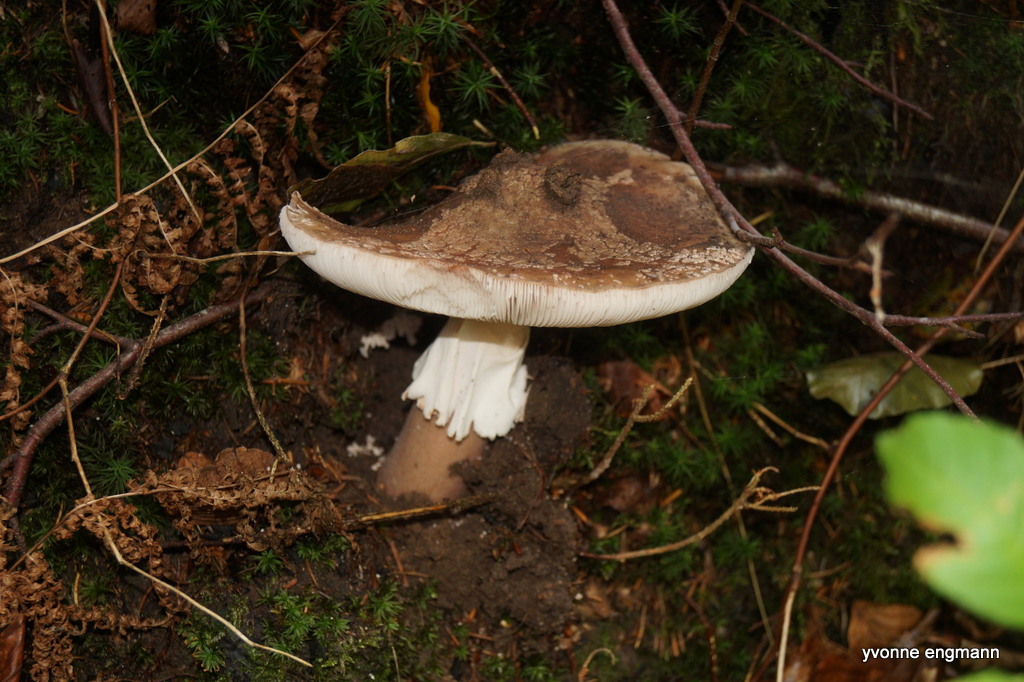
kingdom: Fungi
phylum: Basidiomycota
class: Agaricomycetes
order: Agaricales
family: Amanitaceae
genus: Amanita
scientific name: Amanita rubescens
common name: rødmende fluesvamp
